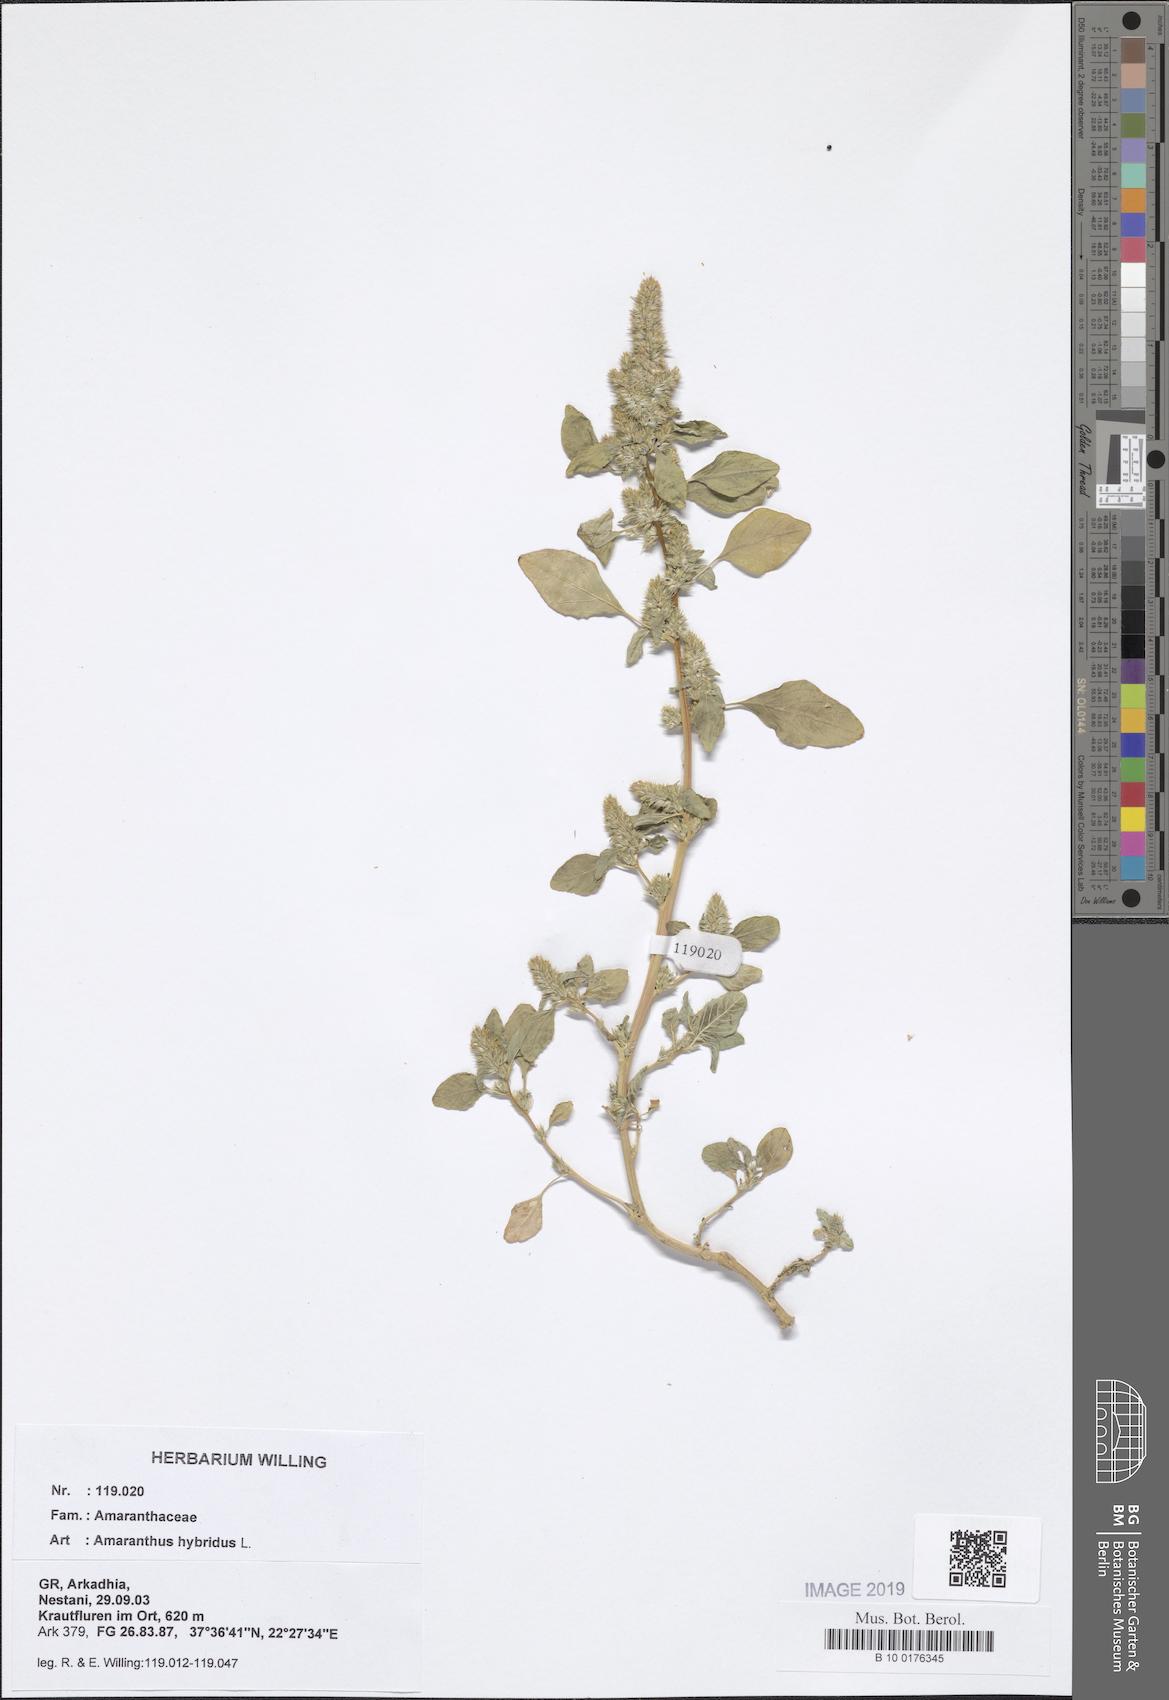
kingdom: Plantae
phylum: Tracheophyta
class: Magnoliopsida
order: Caryophyllales
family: Amaranthaceae
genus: Amaranthus
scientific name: Amaranthus hybridus
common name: Green amaranth
